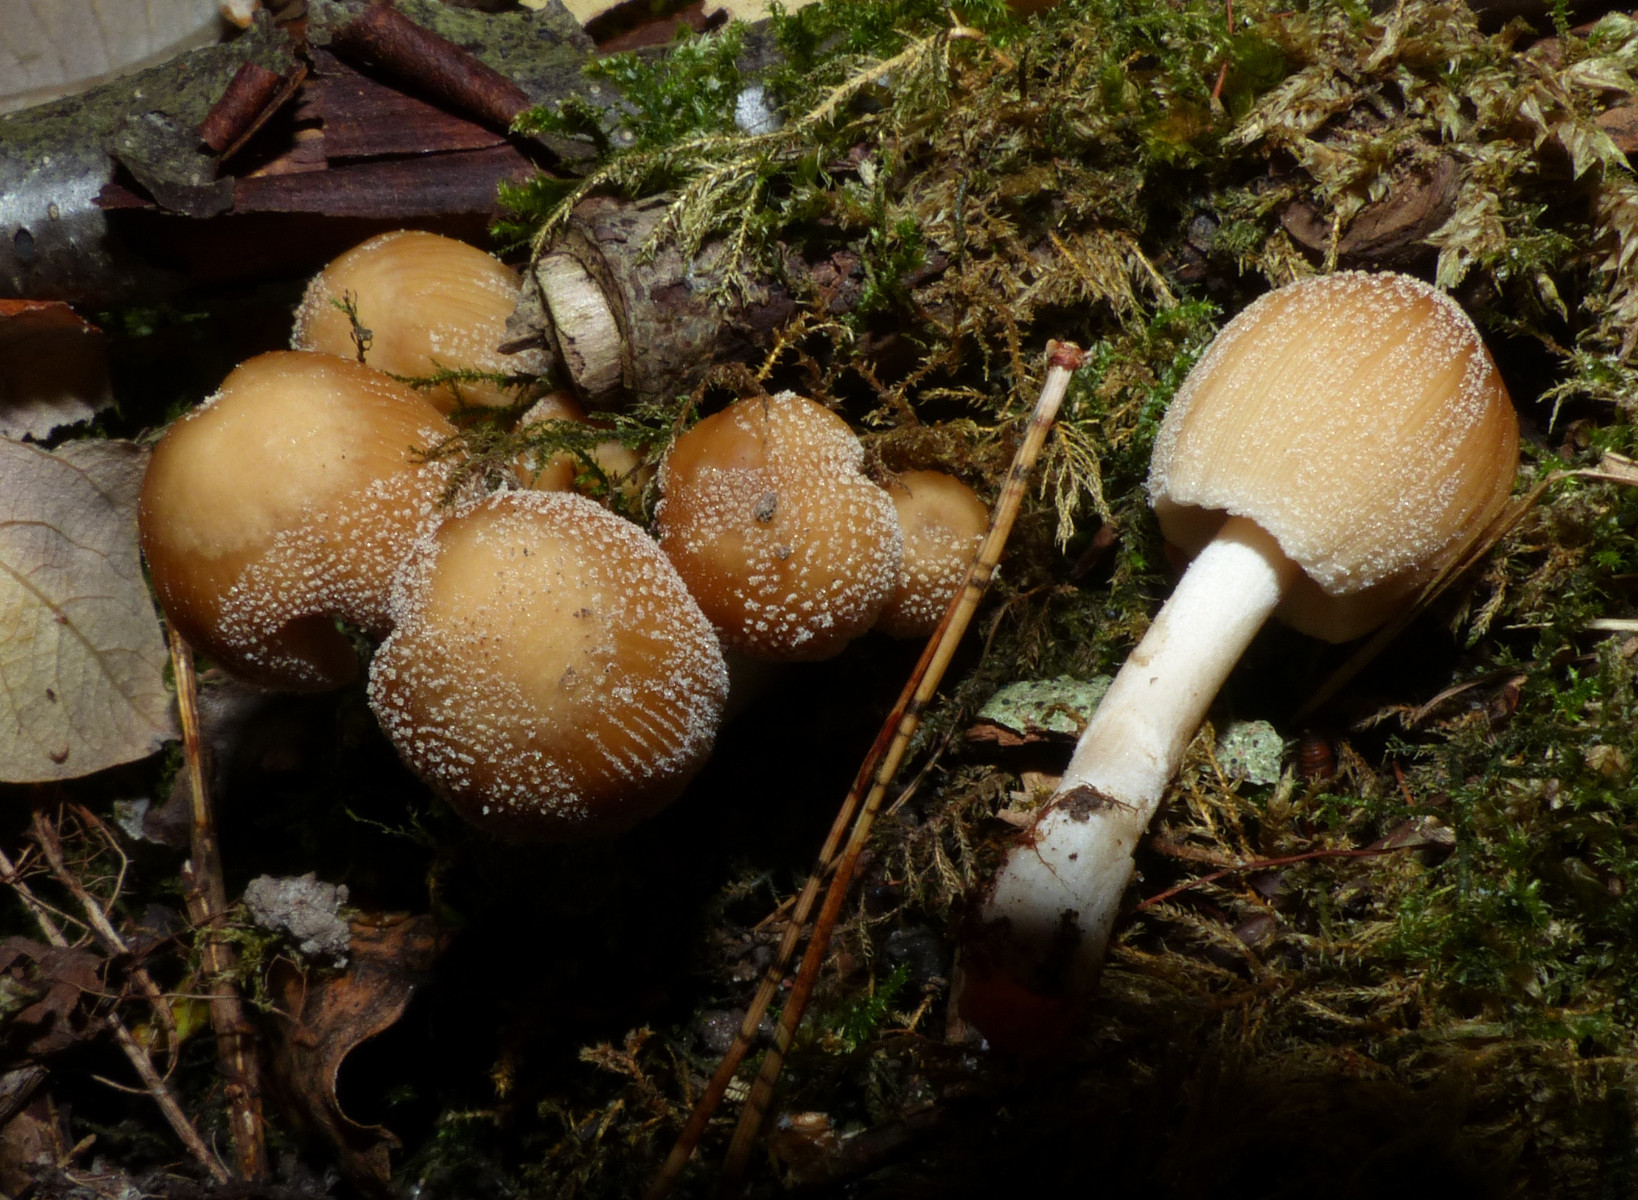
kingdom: Fungi
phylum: Basidiomycota
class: Agaricomycetes
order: Agaricales
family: Psathyrellaceae
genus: Coprinellus
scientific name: Coprinellus micaceus
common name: glimmer-blækhat
